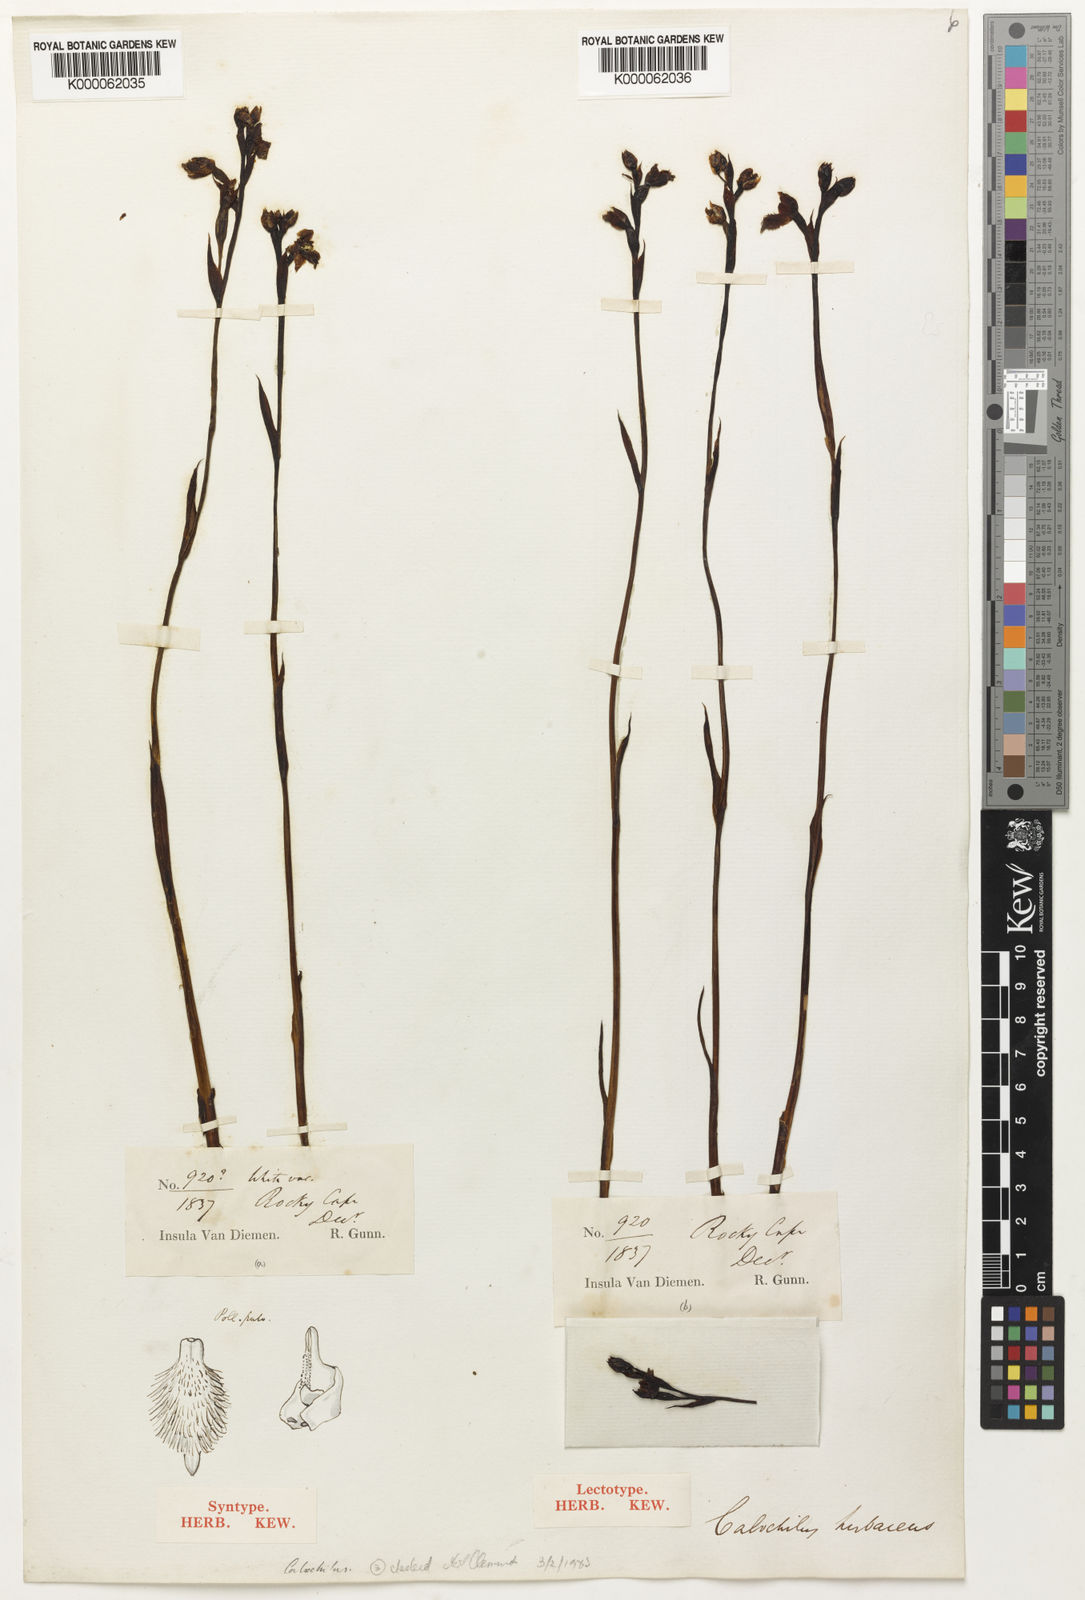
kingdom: Plantae
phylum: Tracheophyta
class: Liliopsida
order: Asparagales
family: Orchidaceae
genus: Calochilus
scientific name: Calochilus herbaceus
